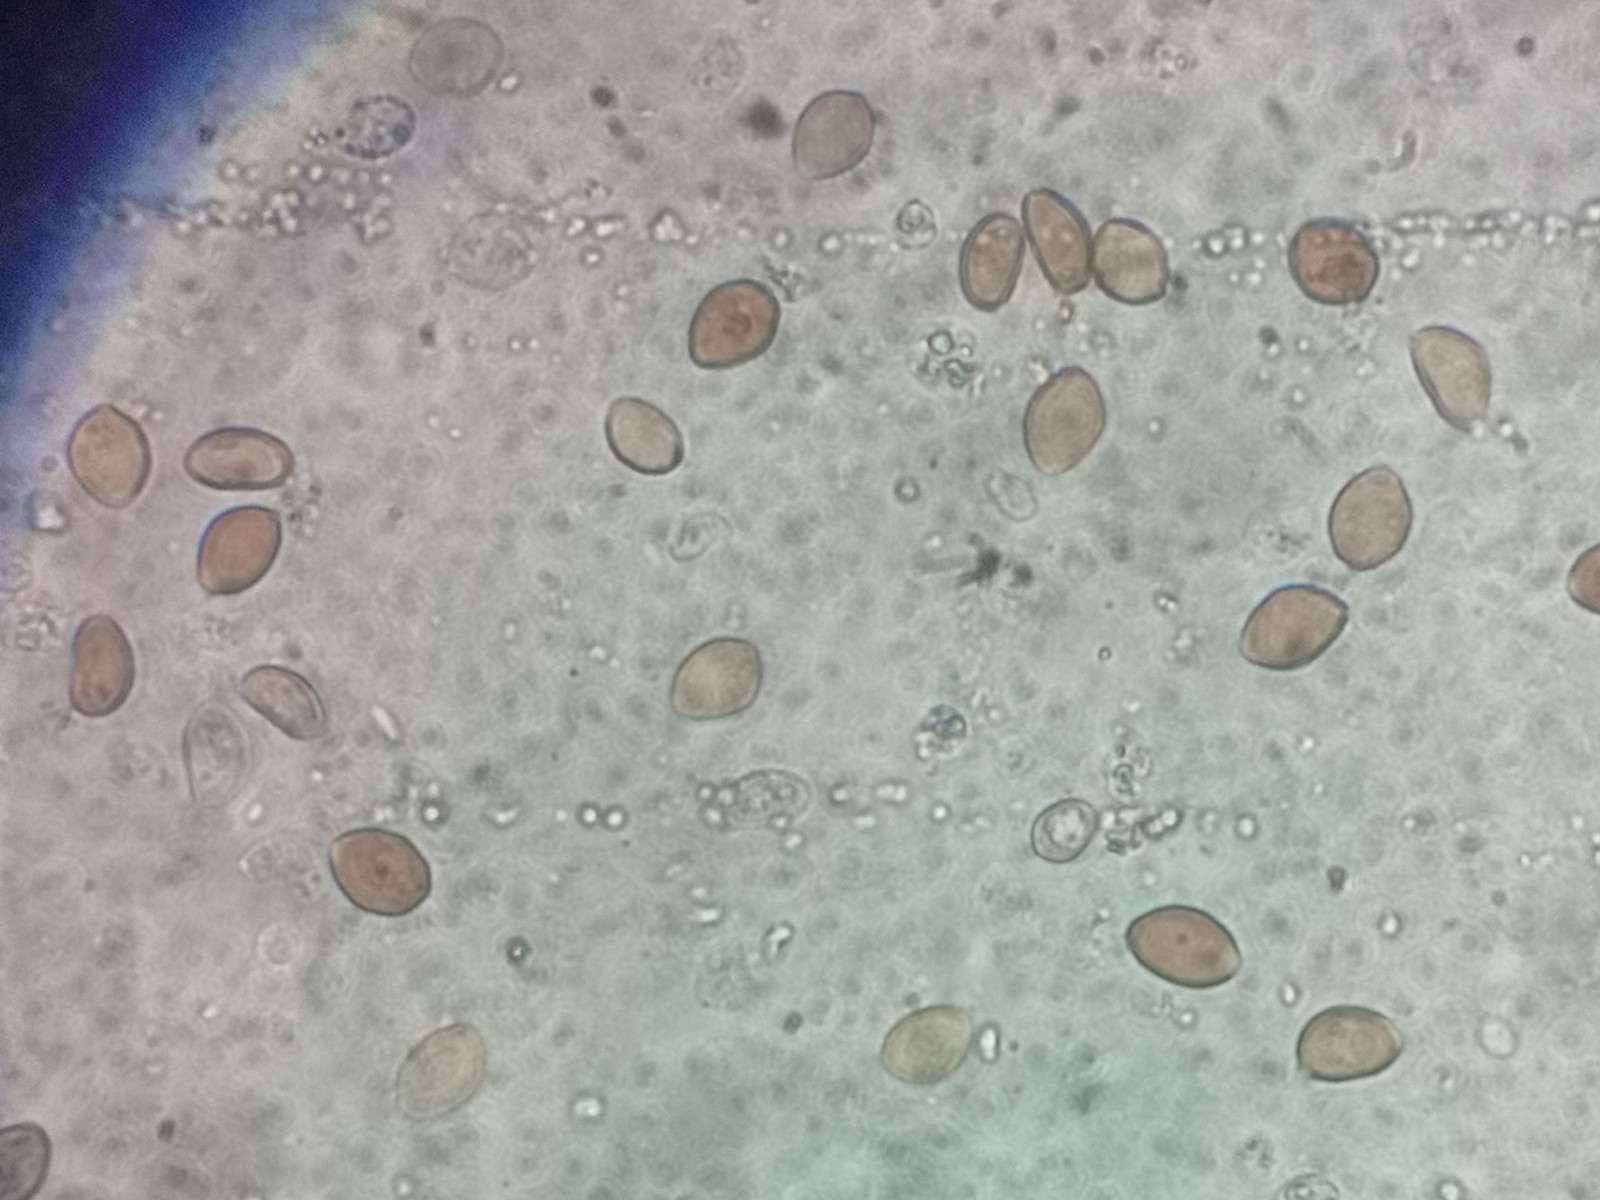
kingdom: Fungi
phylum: Basidiomycota
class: Agaricomycetes
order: Agaricales
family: Psathyrellaceae
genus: Parasola
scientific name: Parasola kuehneri
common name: skygge-hjulhat
